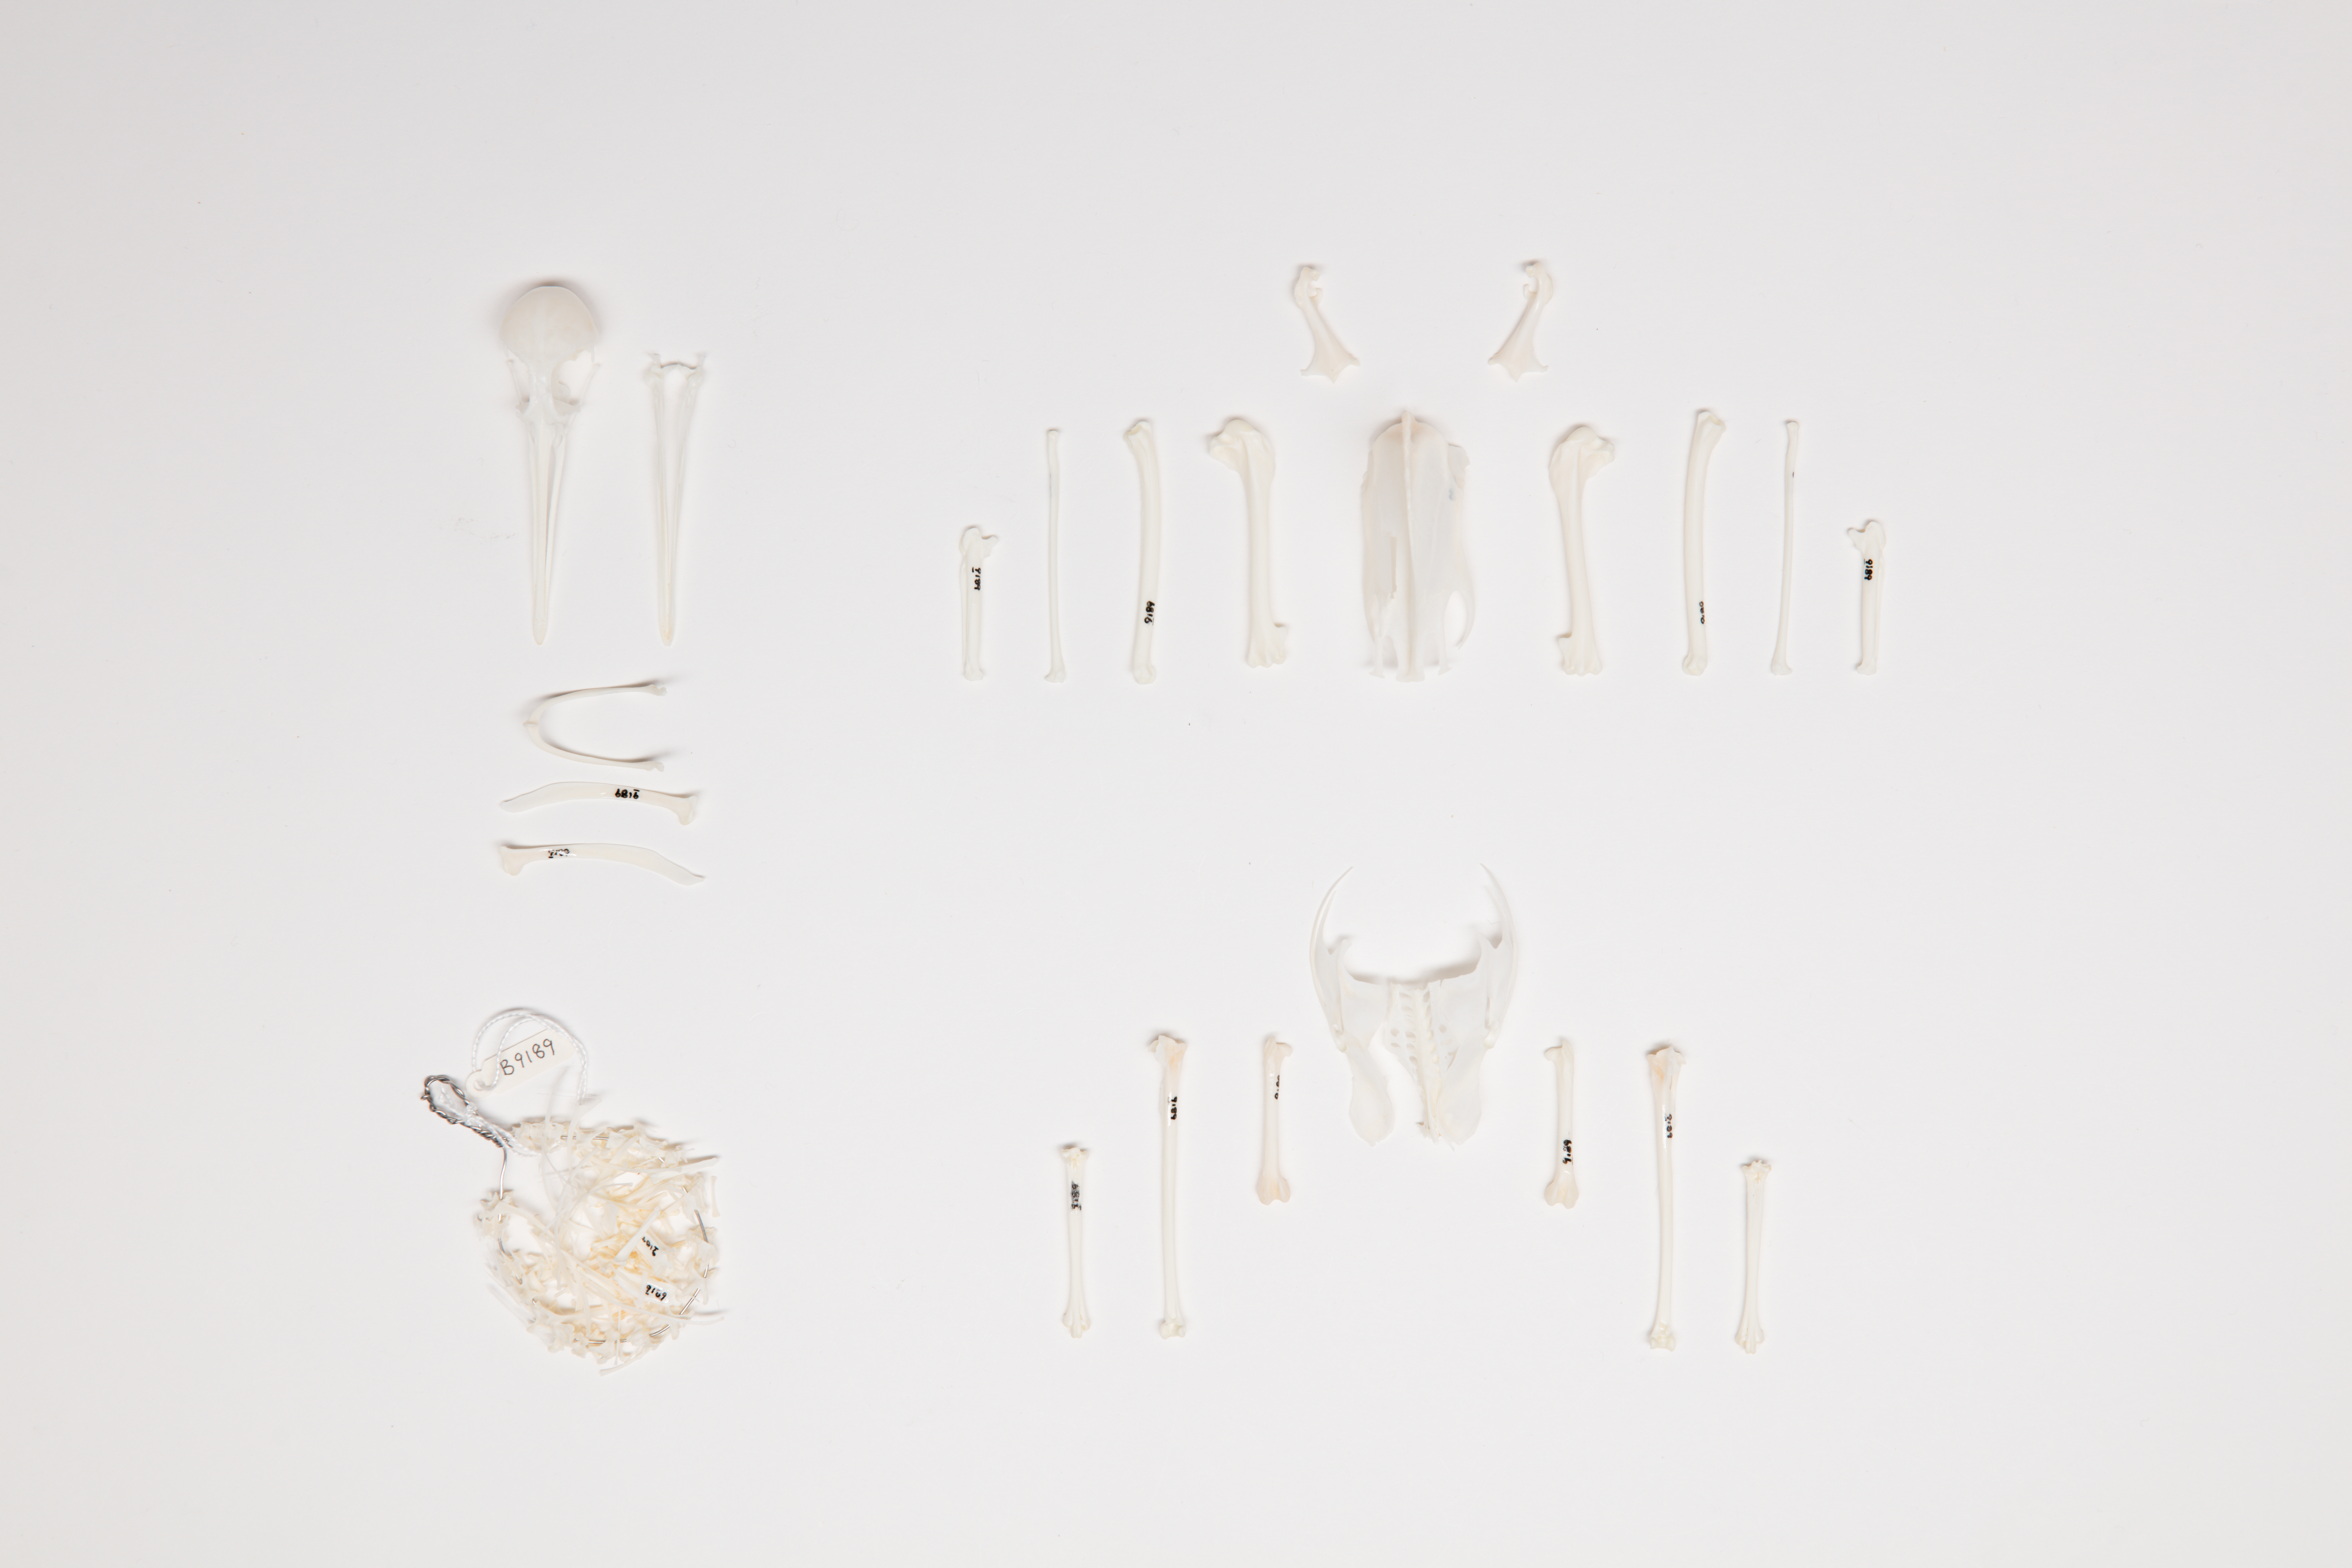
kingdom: Animalia
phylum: Chordata
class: Aves
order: Charadriiformes
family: Scolopacidae
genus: Tringa
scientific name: Tringa incana
